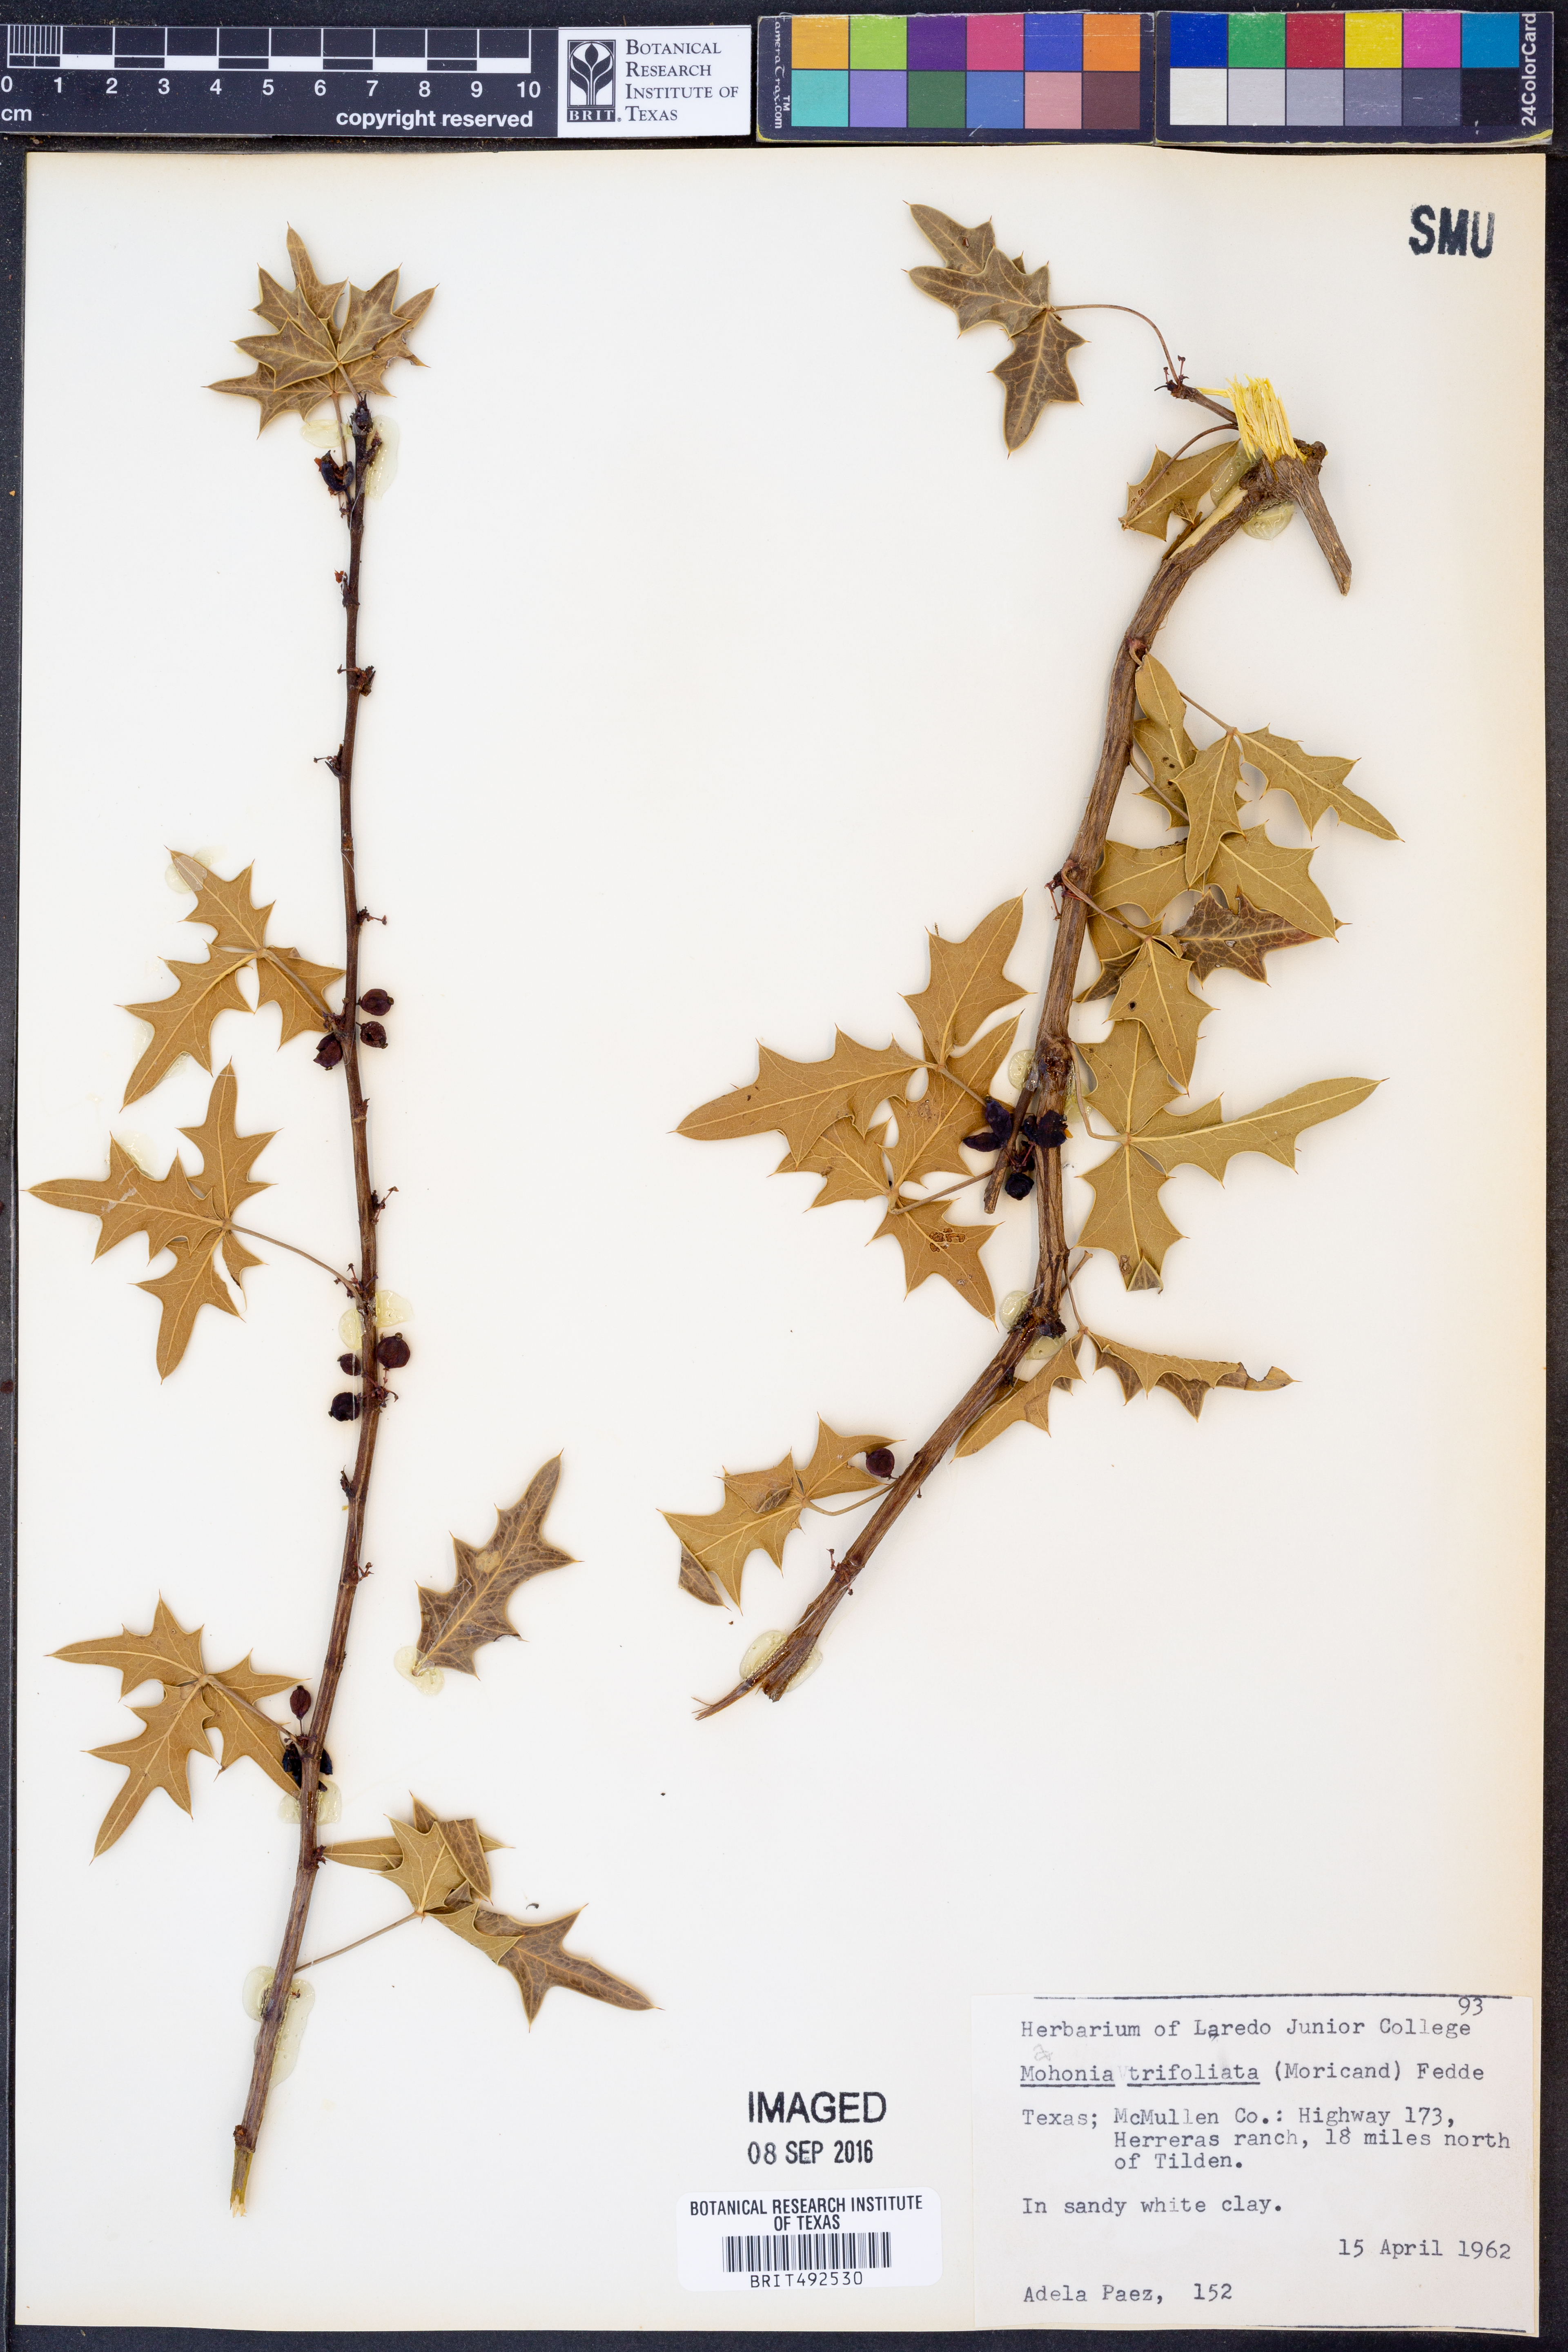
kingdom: Plantae
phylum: Tracheophyta
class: Magnoliopsida
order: Ranunculales
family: Berberidaceae
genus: Mahonia
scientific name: Mahonia trifolia
